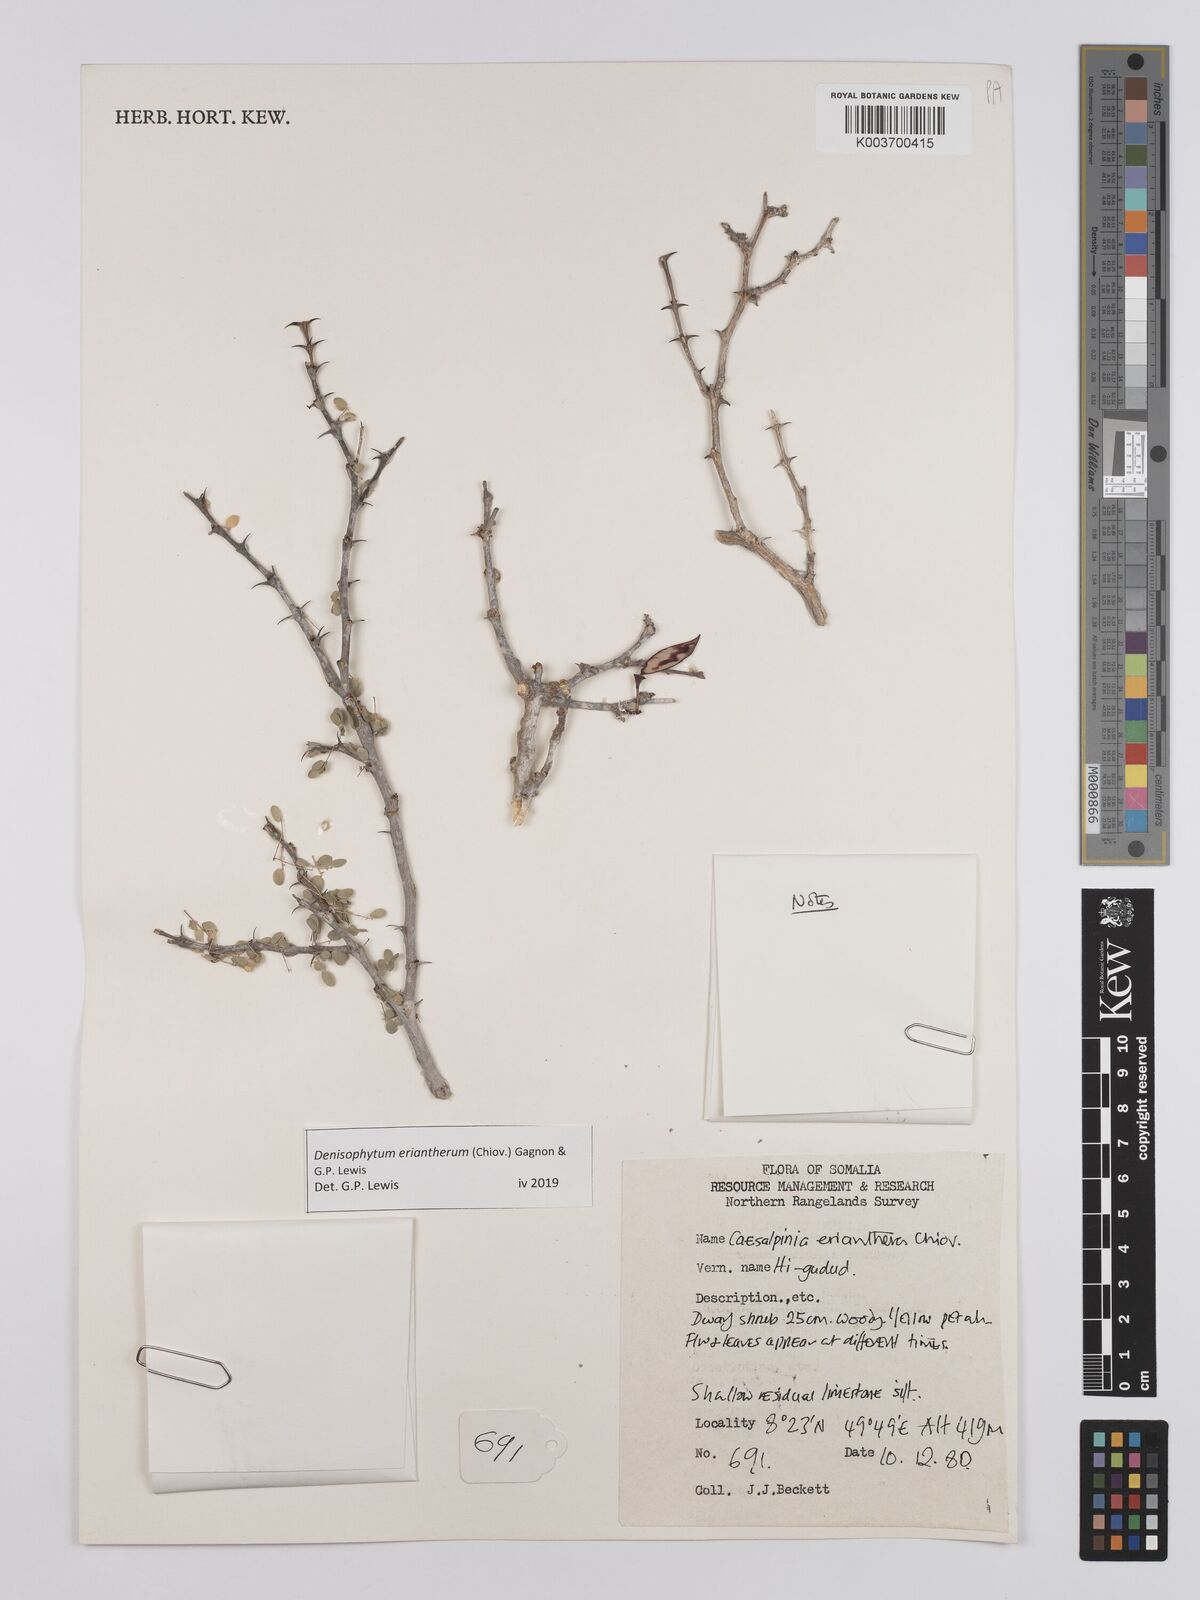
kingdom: Plantae
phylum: Tracheophyta
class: Magnoliopsida
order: Fabales
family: Fabaceae
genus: Denisophytum
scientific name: Denisophytum eriantherum
